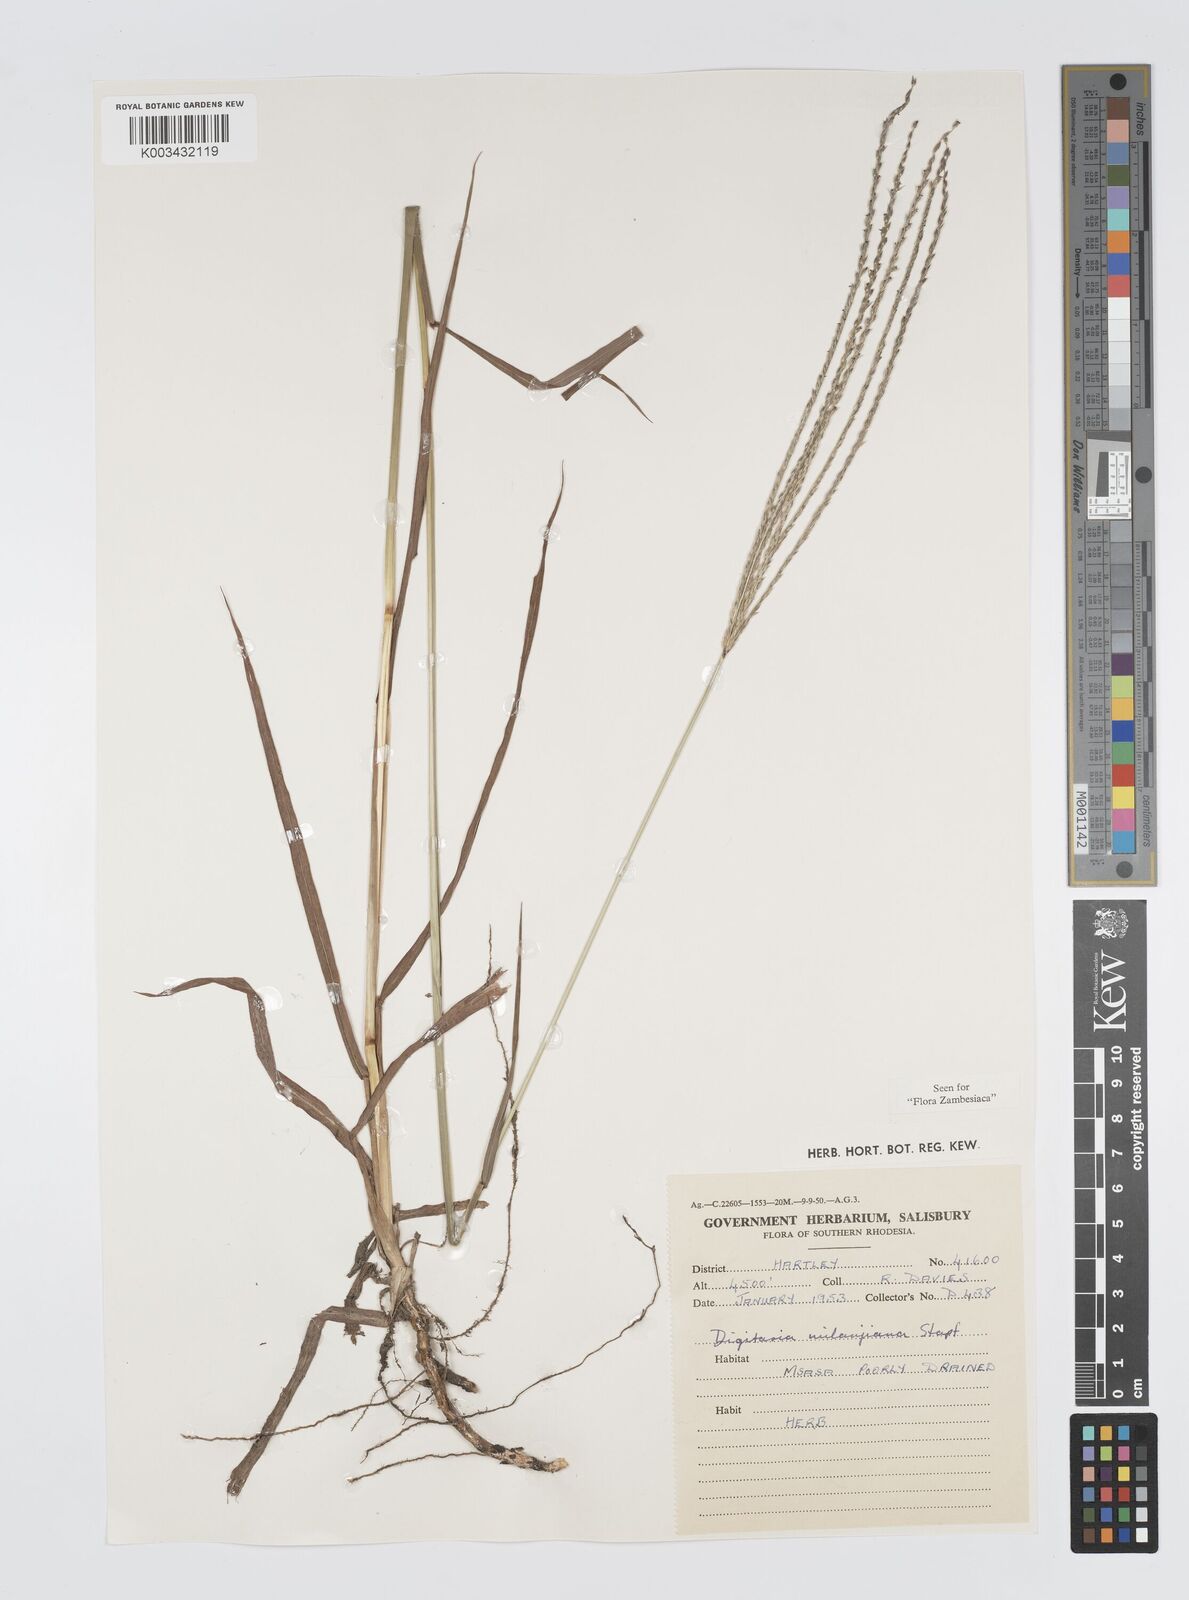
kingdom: Plantae
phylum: Tracheophyta
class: Liliopsida
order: Poales
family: Poaceae
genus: Digitaria
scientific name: Digitaria milanjiana
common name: Madagascar crabgrass
